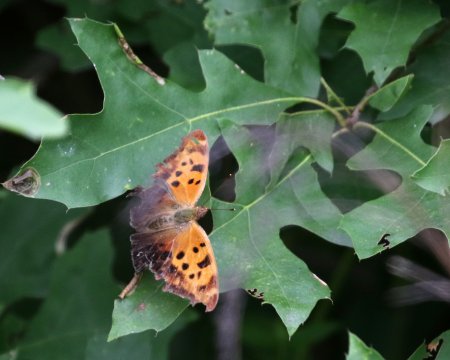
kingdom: Animalia
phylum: Arthropoda
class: Insecta
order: Lepidoptera
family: Nymphalidae
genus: Polygonia
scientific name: Polygonia interrogationis
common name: Question Mark
